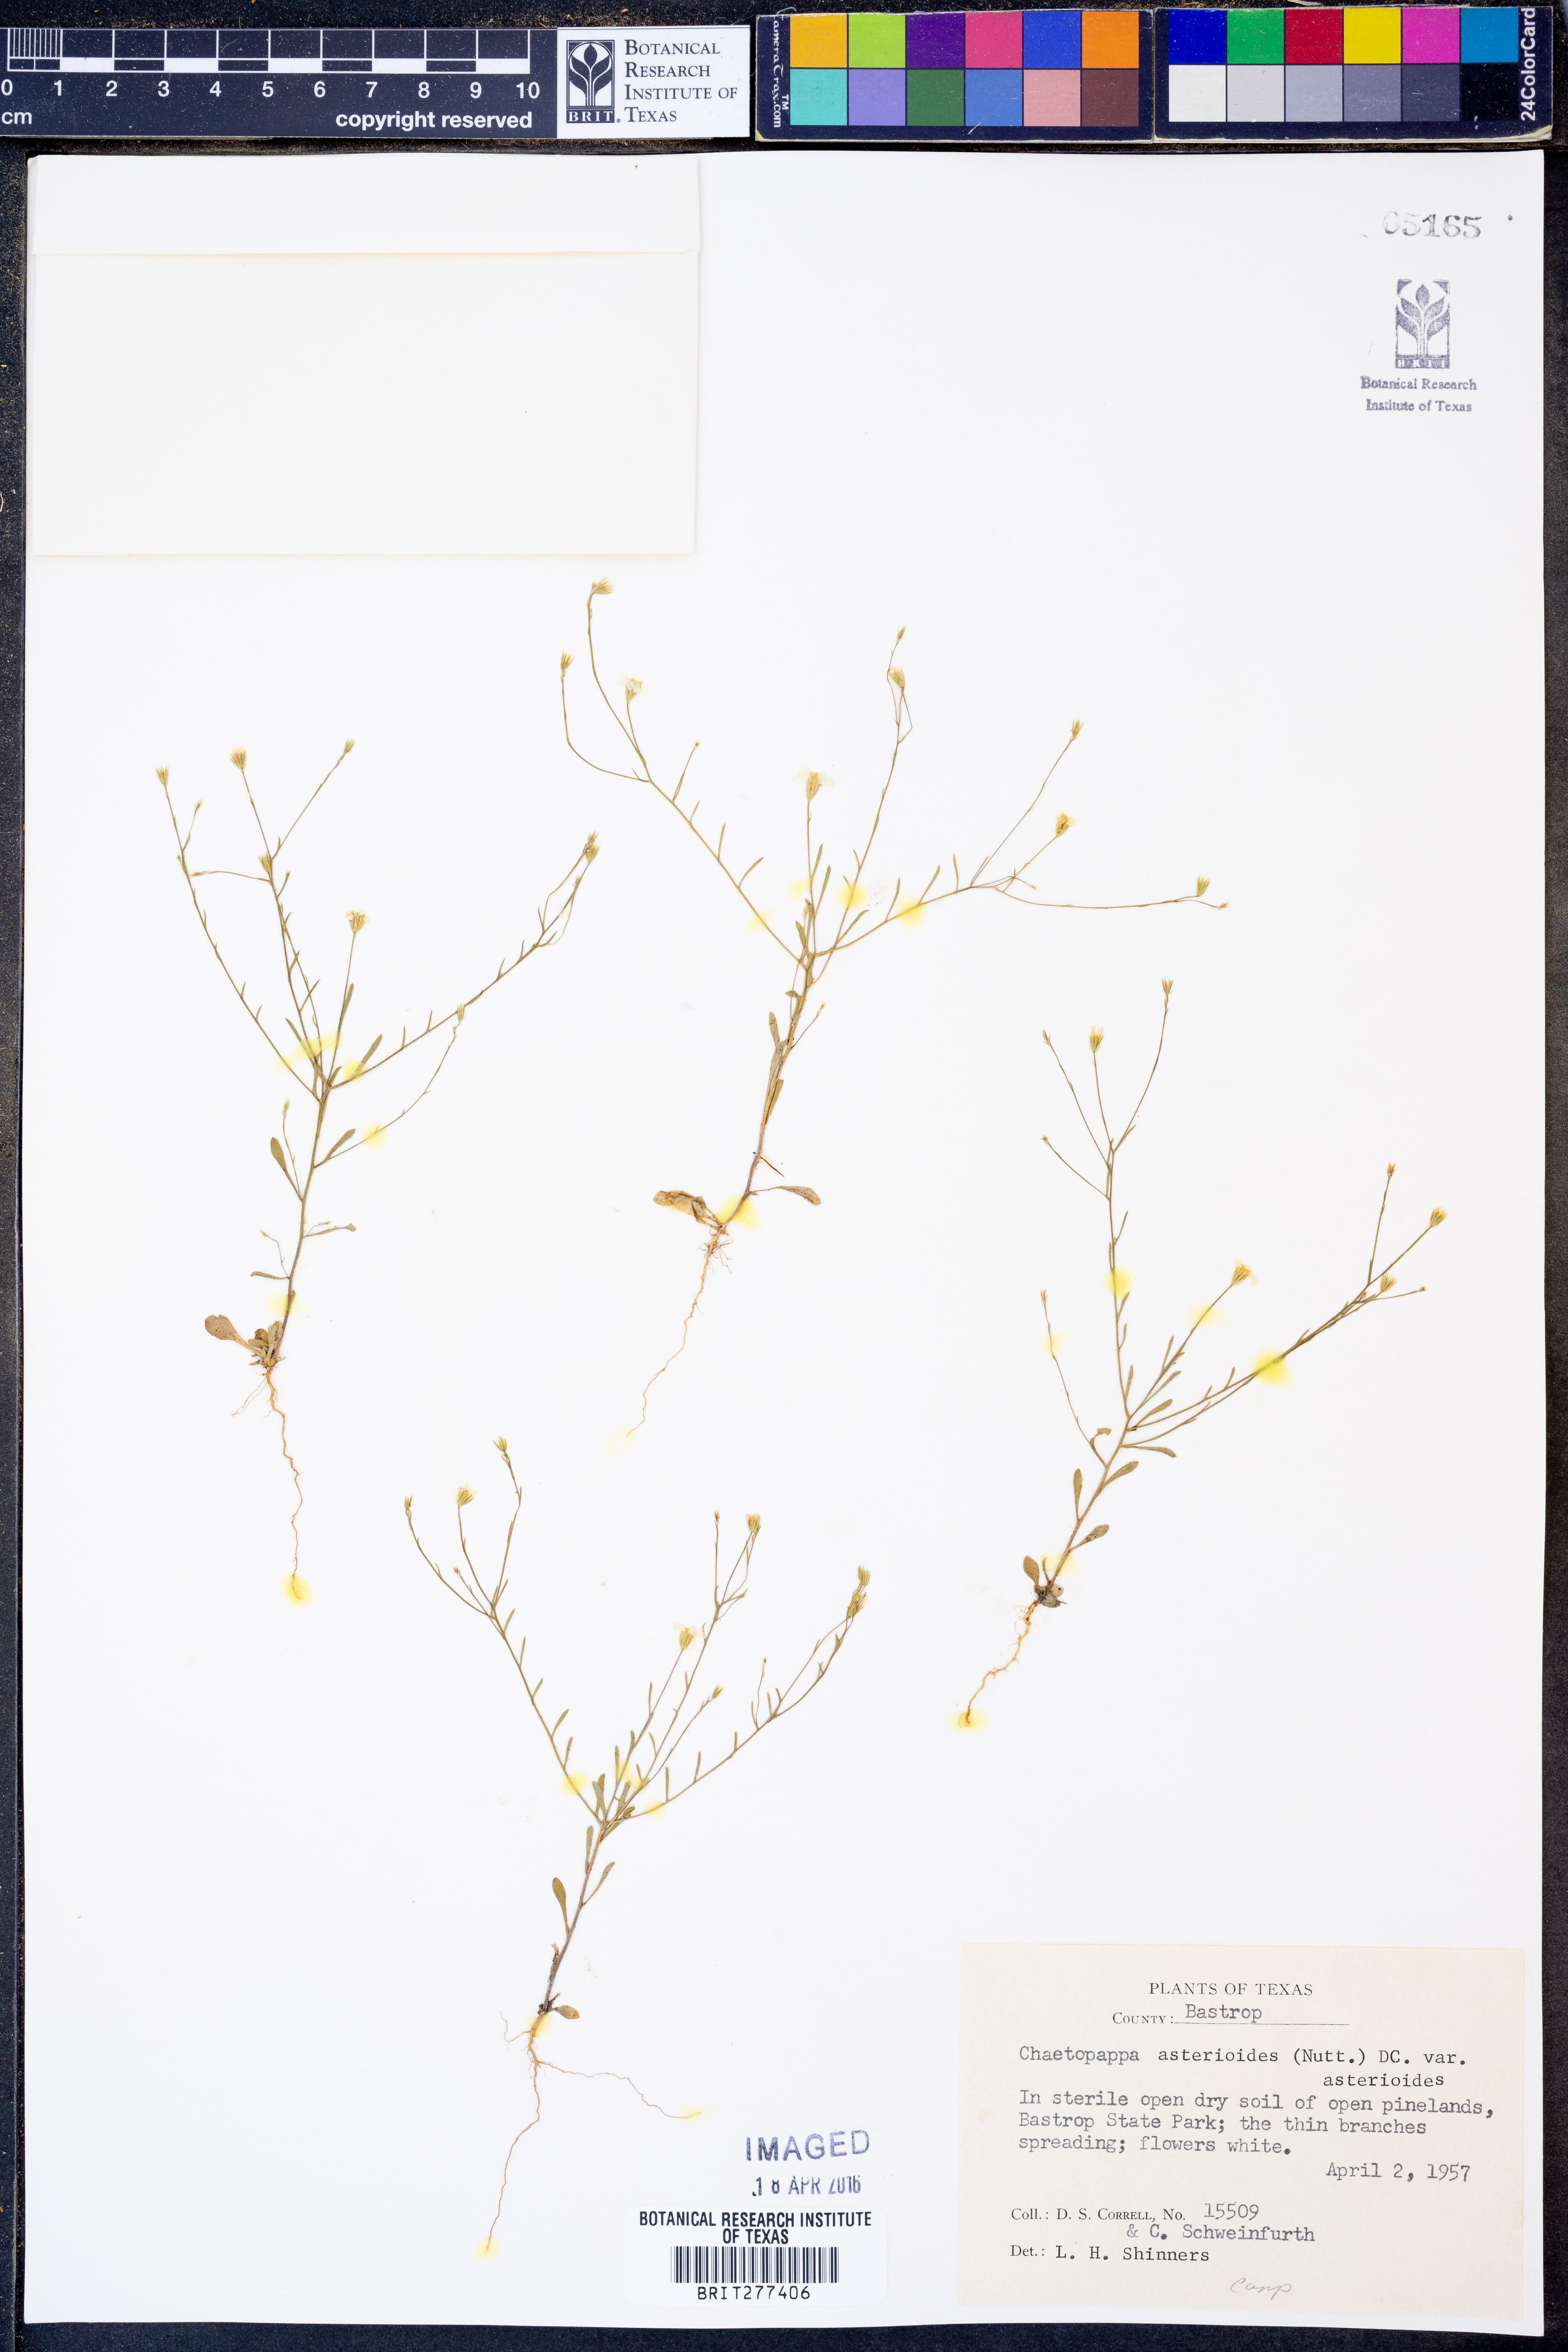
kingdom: Plantae
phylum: Tracheophyta
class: Magnoliopsida
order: Asterales
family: Asteraceae
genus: Chaetopappa
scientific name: Chaetopappa asteroides
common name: Tiny lazy daisy
